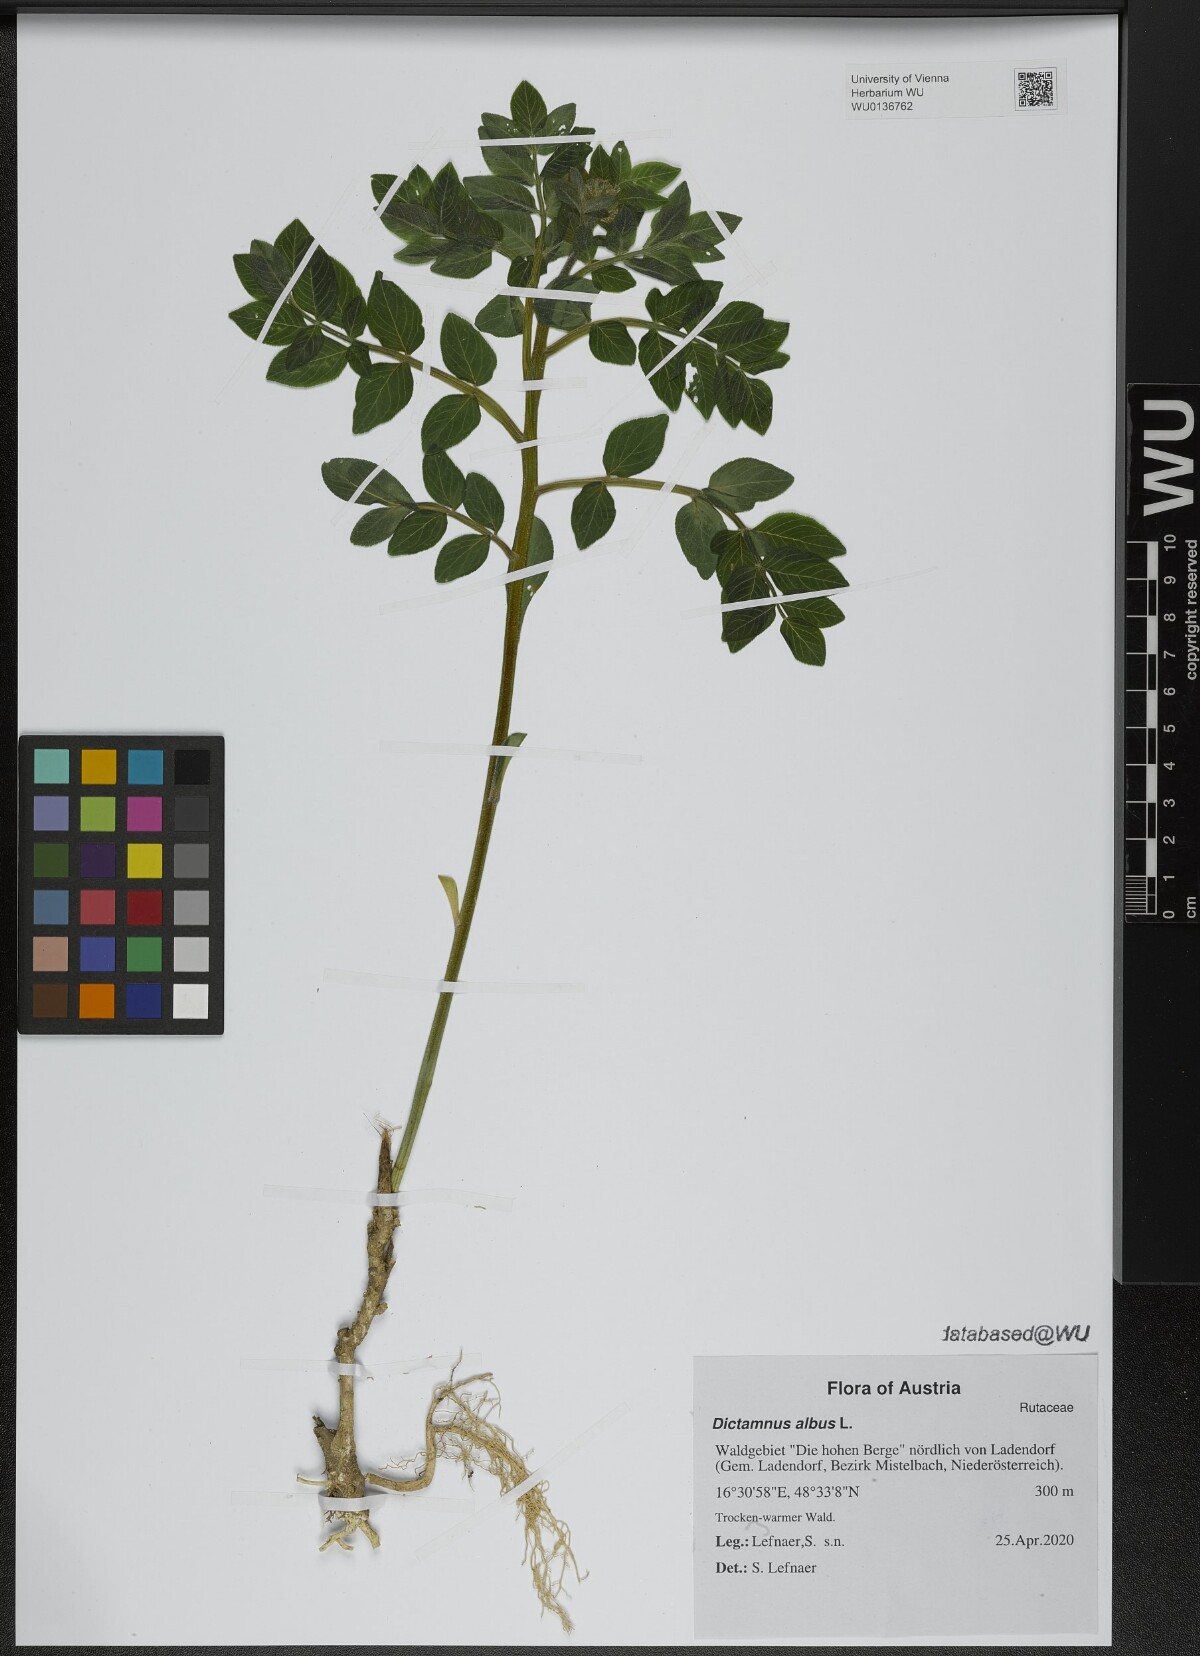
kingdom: Plantae
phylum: Tracheophyta
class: Magnoliopsida
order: Sapindales
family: Rutaceae
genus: Dictamnus
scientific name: Dictamnus albus
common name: Gasplant
